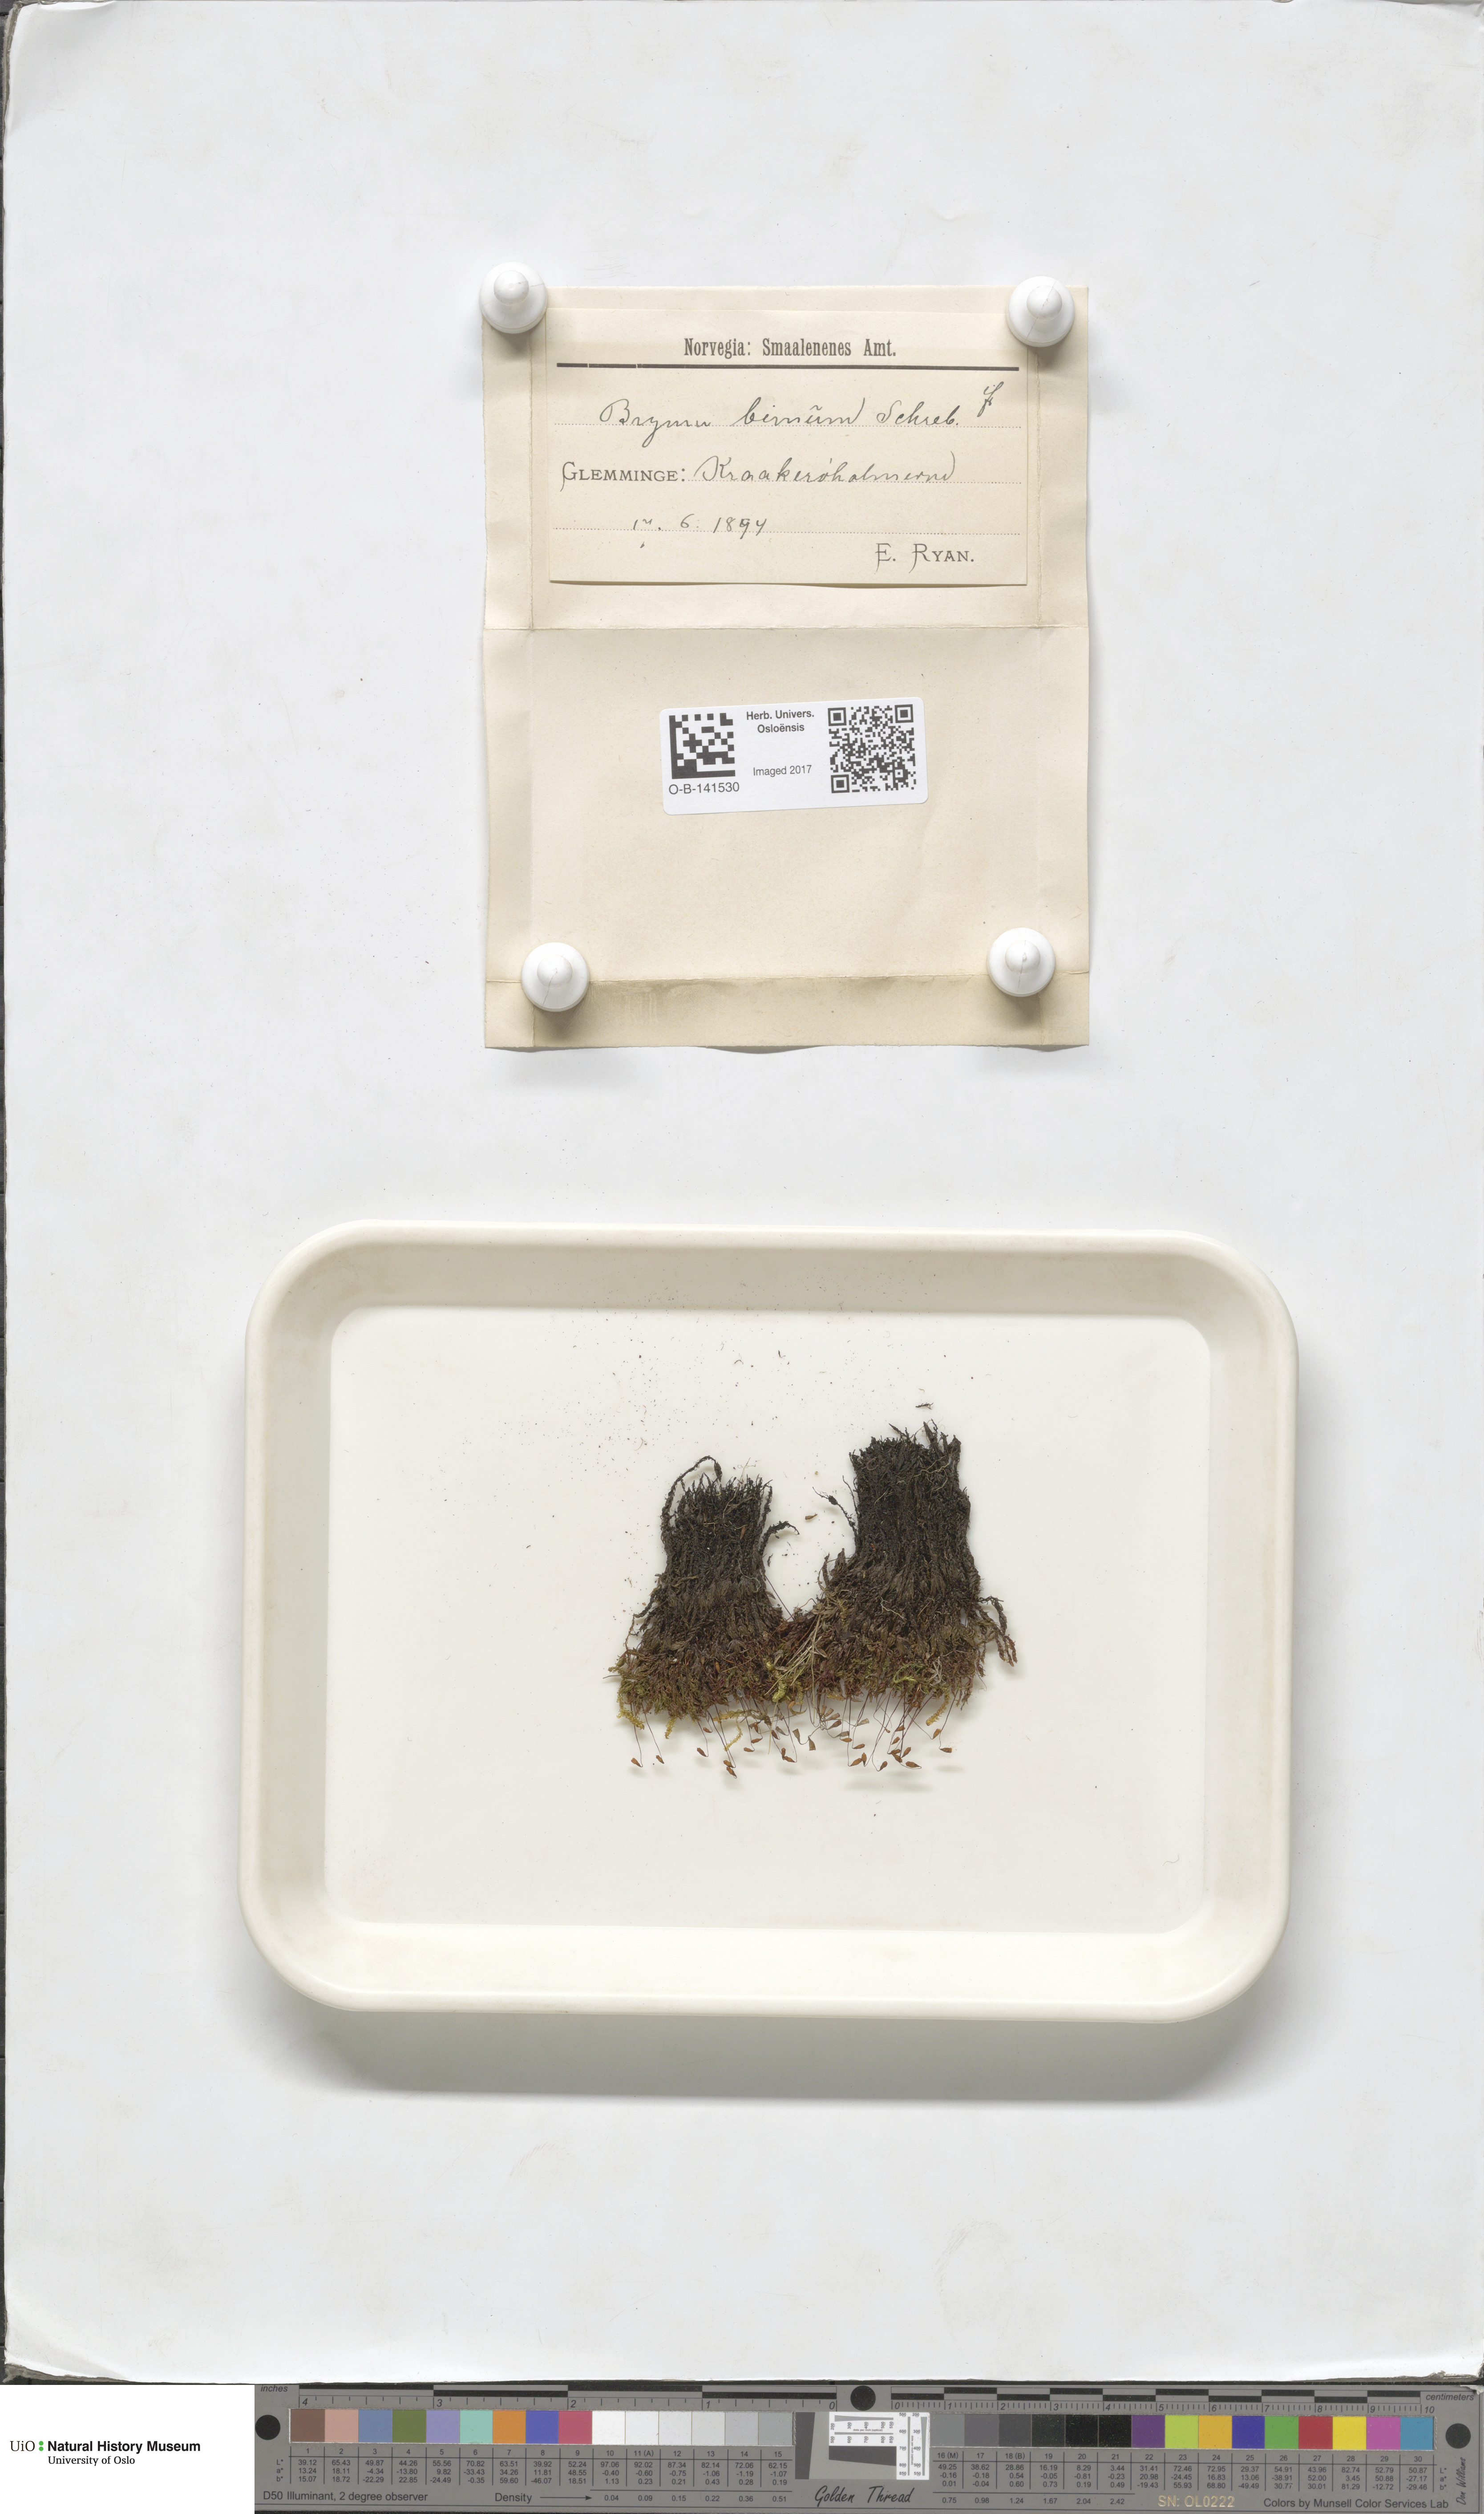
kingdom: Plantae
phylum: Bryophyta
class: Bryopsida
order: Bryales
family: Bryaceae
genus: Ptychostomum
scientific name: Ptychostomum bimum
